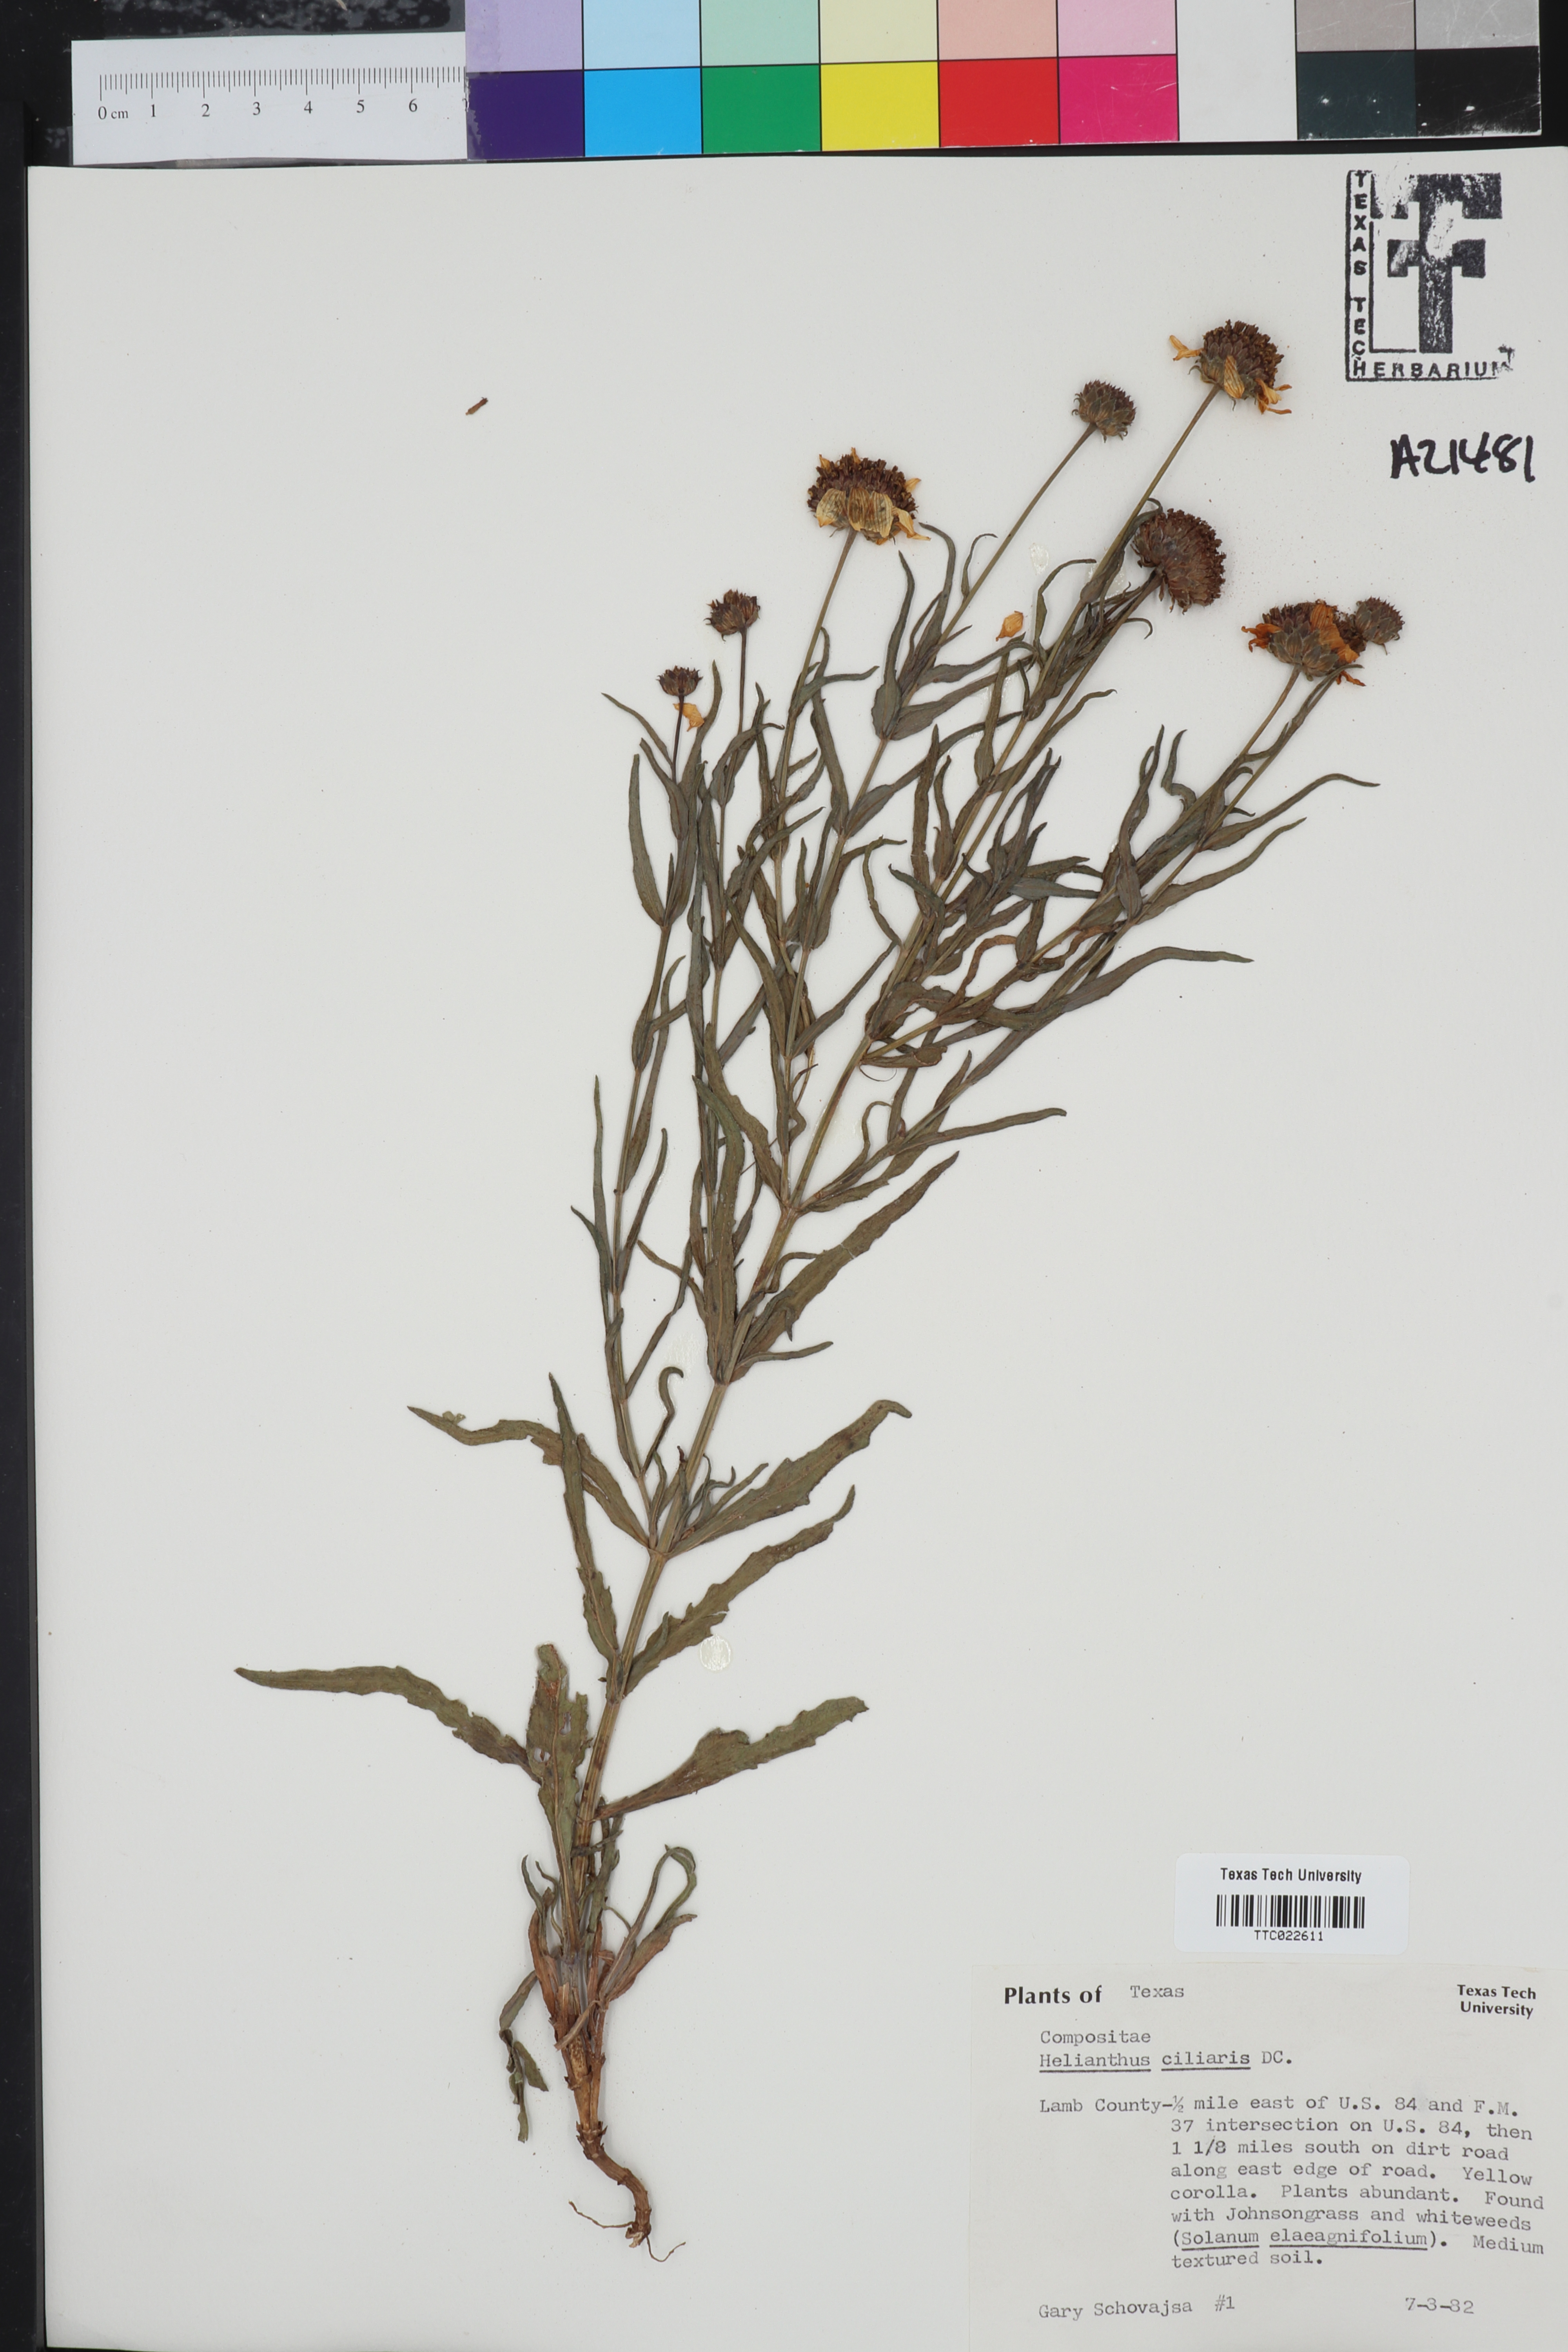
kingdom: Plantae
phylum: Tracheophyta
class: Magnoliopsida
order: Asterales
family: Asteraceae
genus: Helianthus
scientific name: Helianthus ciliaris
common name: Texas blueweed
